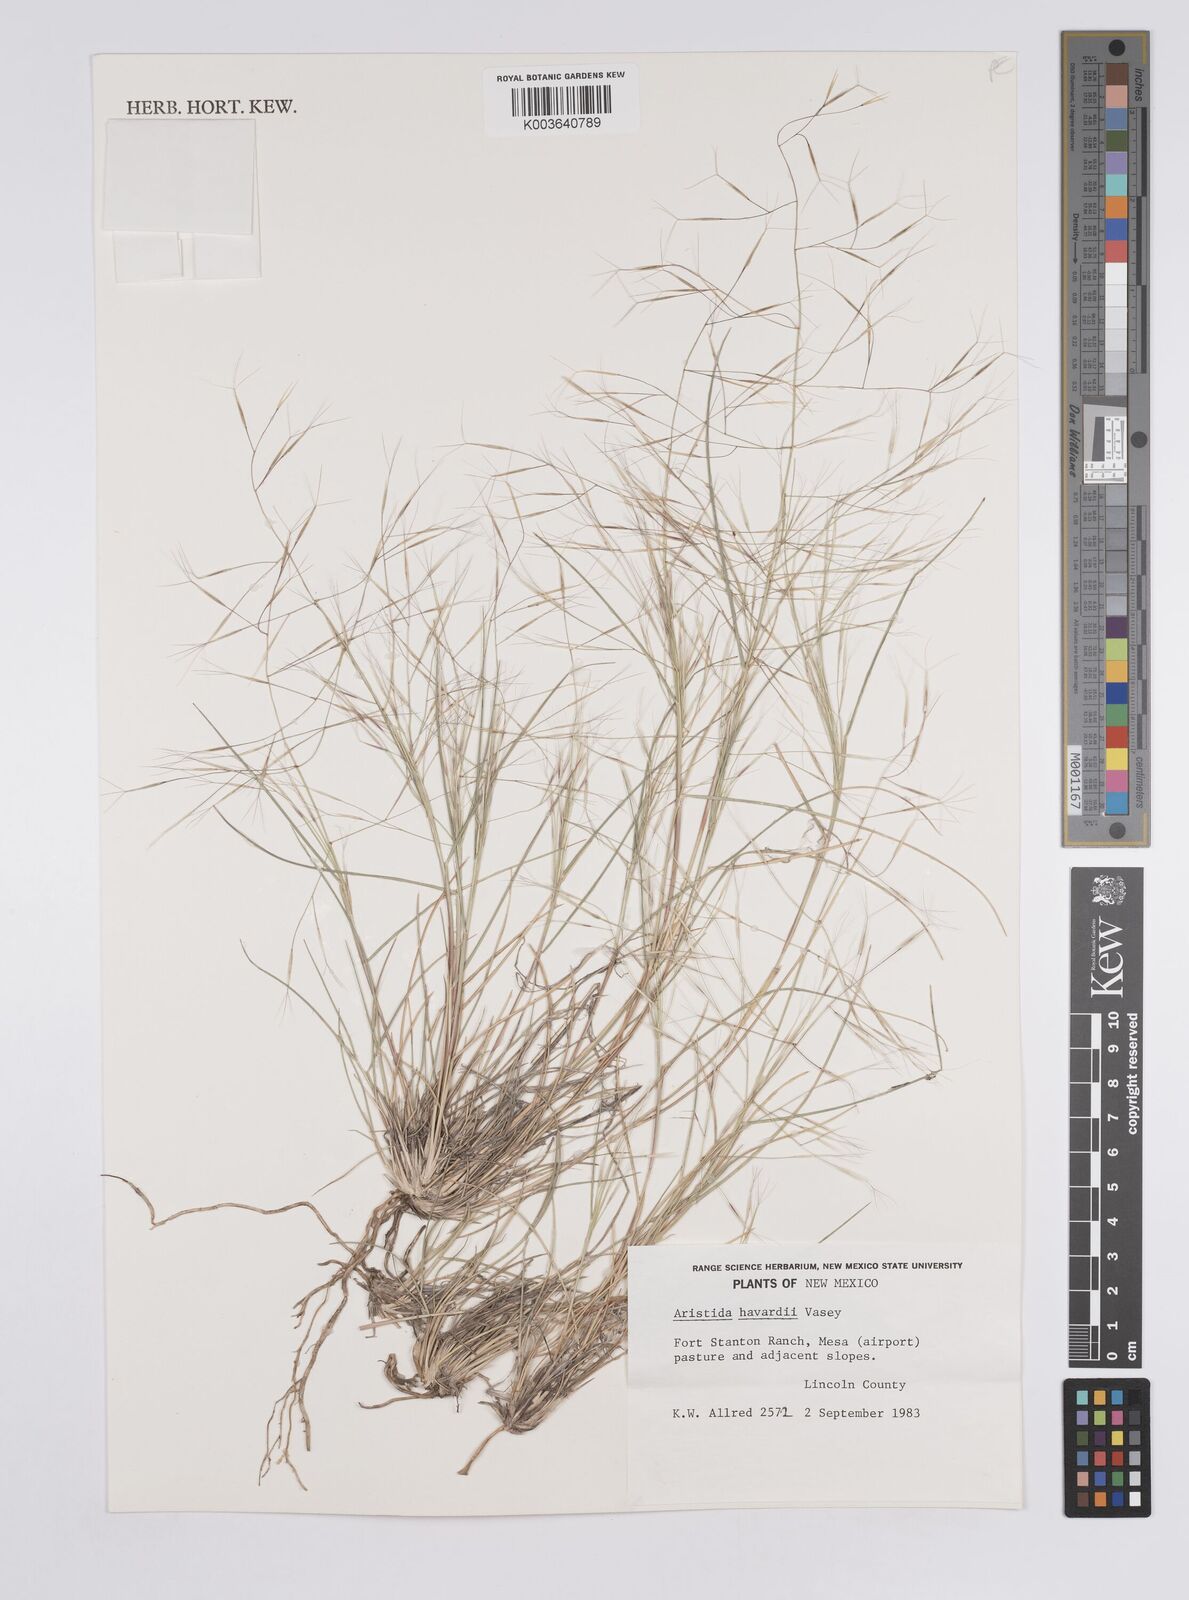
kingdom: Plantae
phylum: Tracheophyta
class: Liliopsida
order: Poales
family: Poaceae
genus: Aristida
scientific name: Aristida havardii
